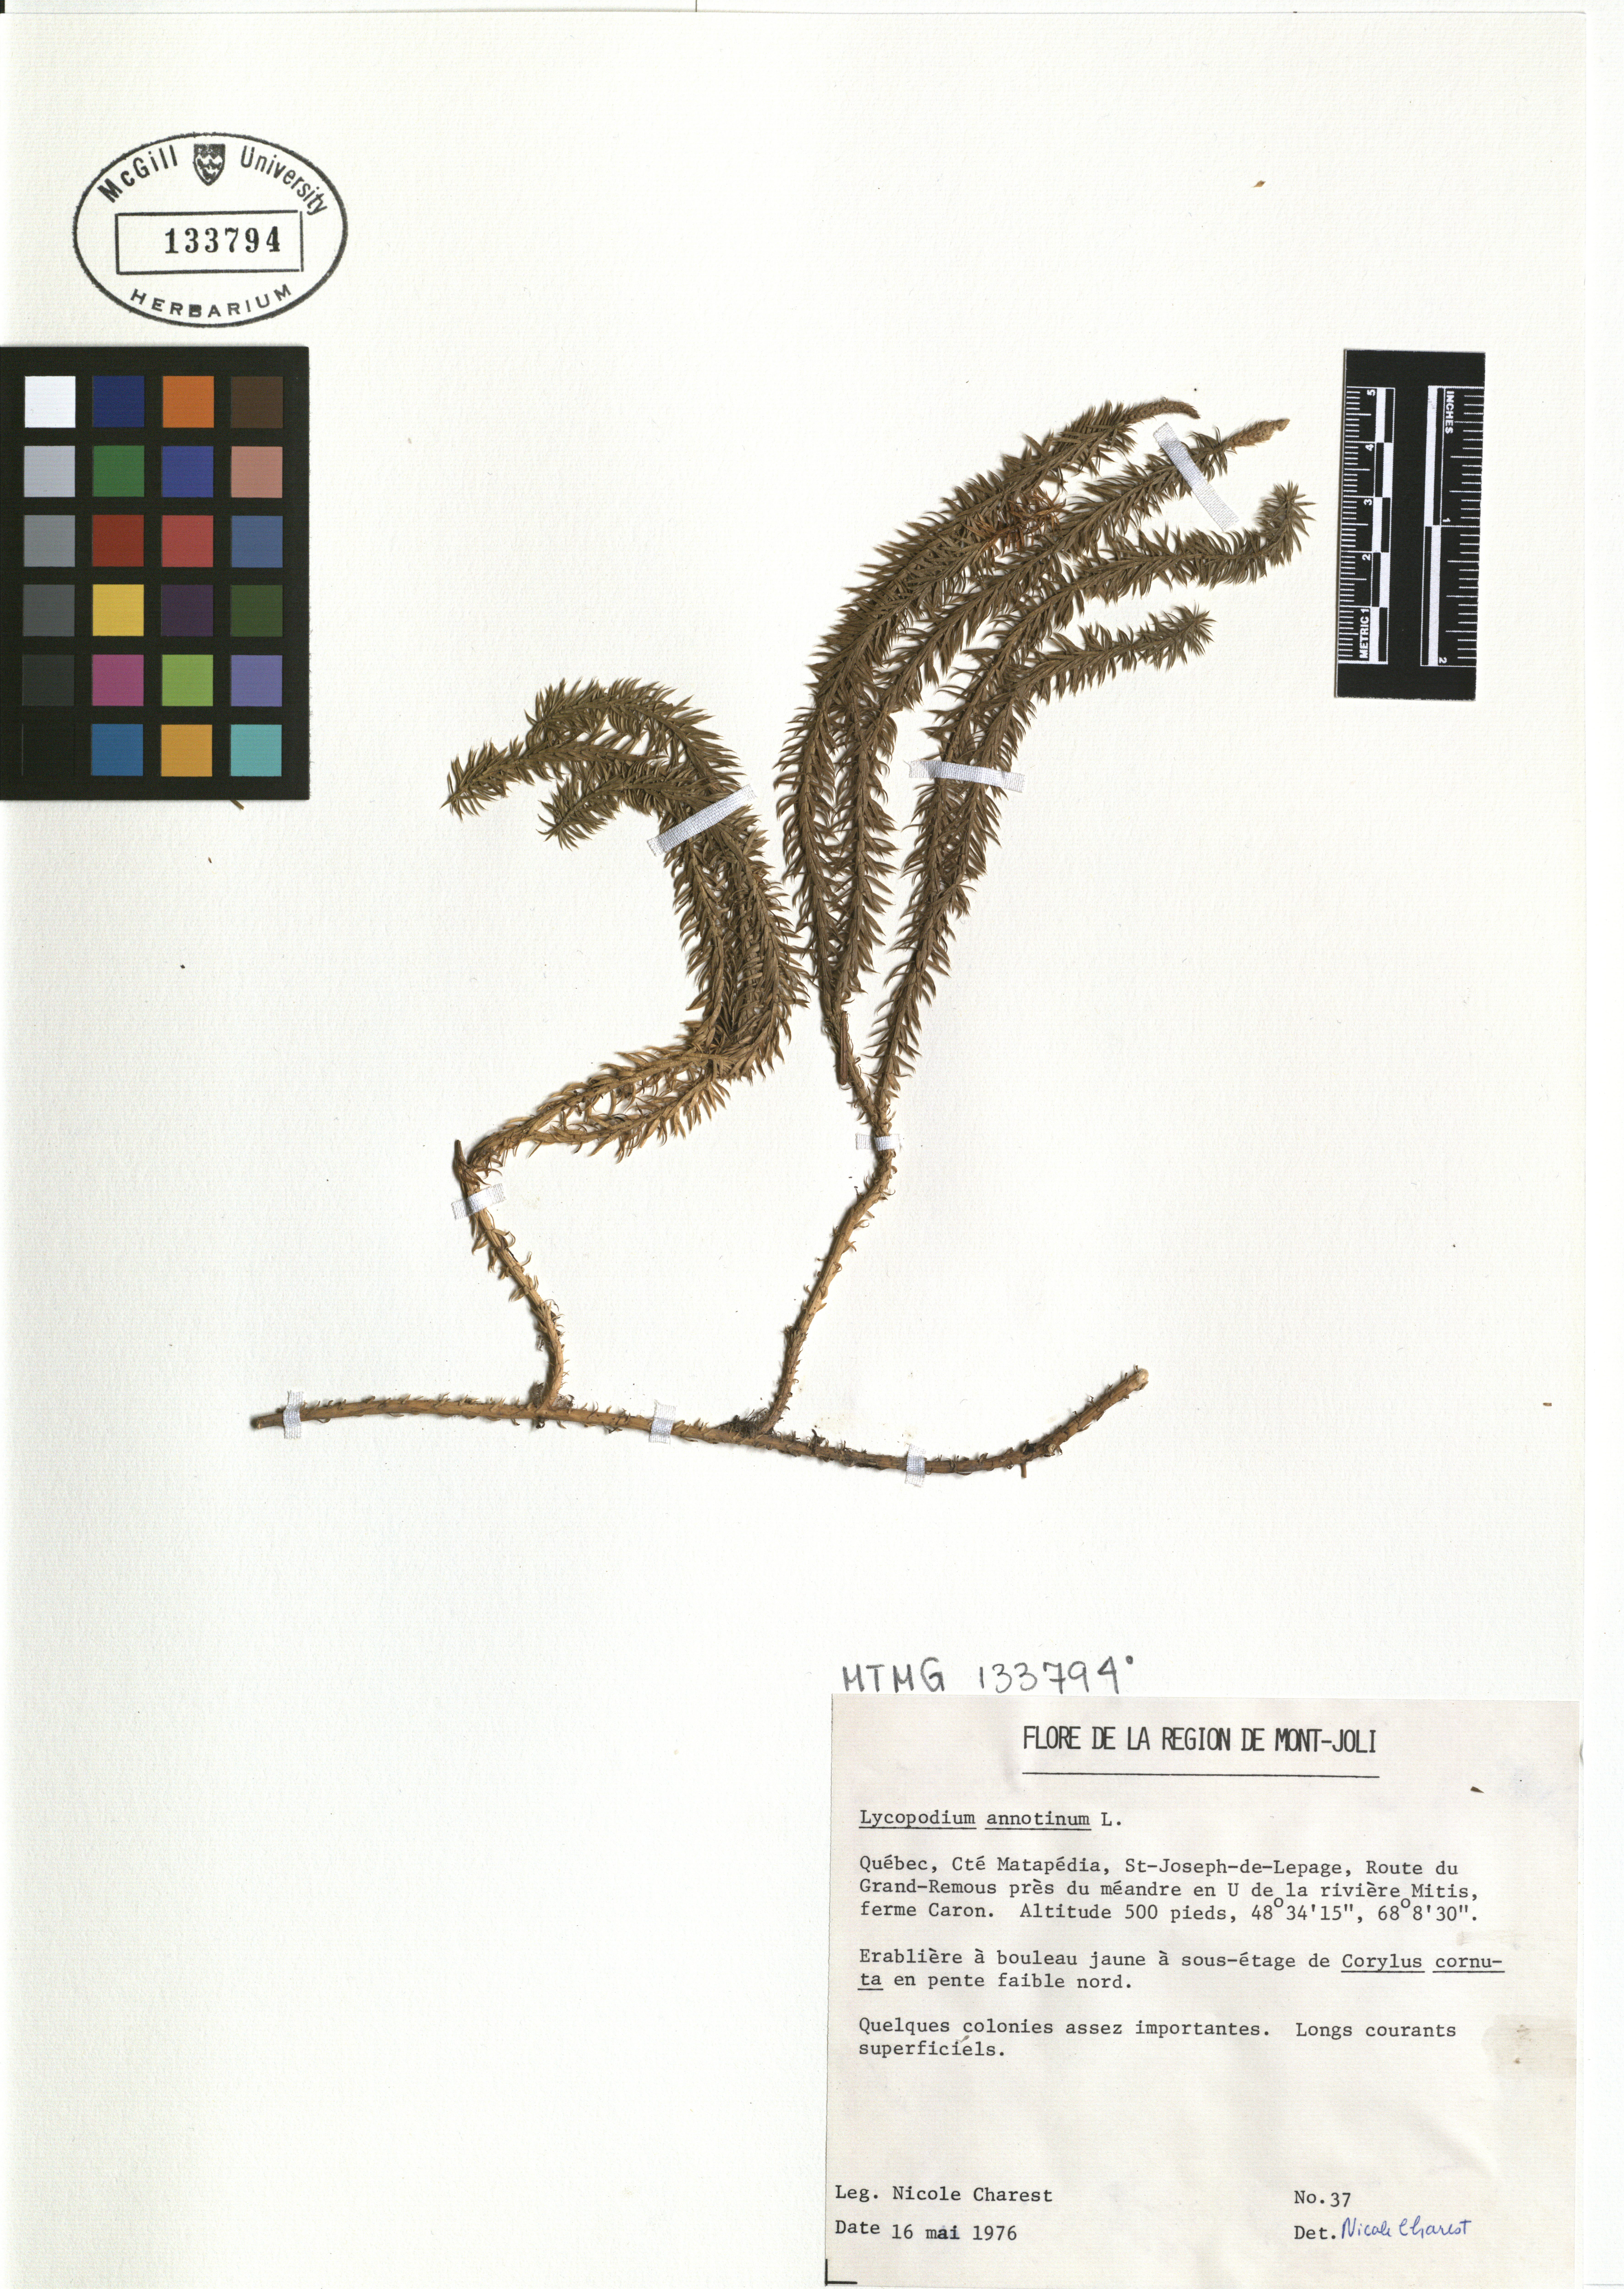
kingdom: Plantae
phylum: Tracheophyta
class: Liliopsida
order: Poales
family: Cyperaceae
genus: Carex
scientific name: Carex bromoides
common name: Brome hummock sedge
